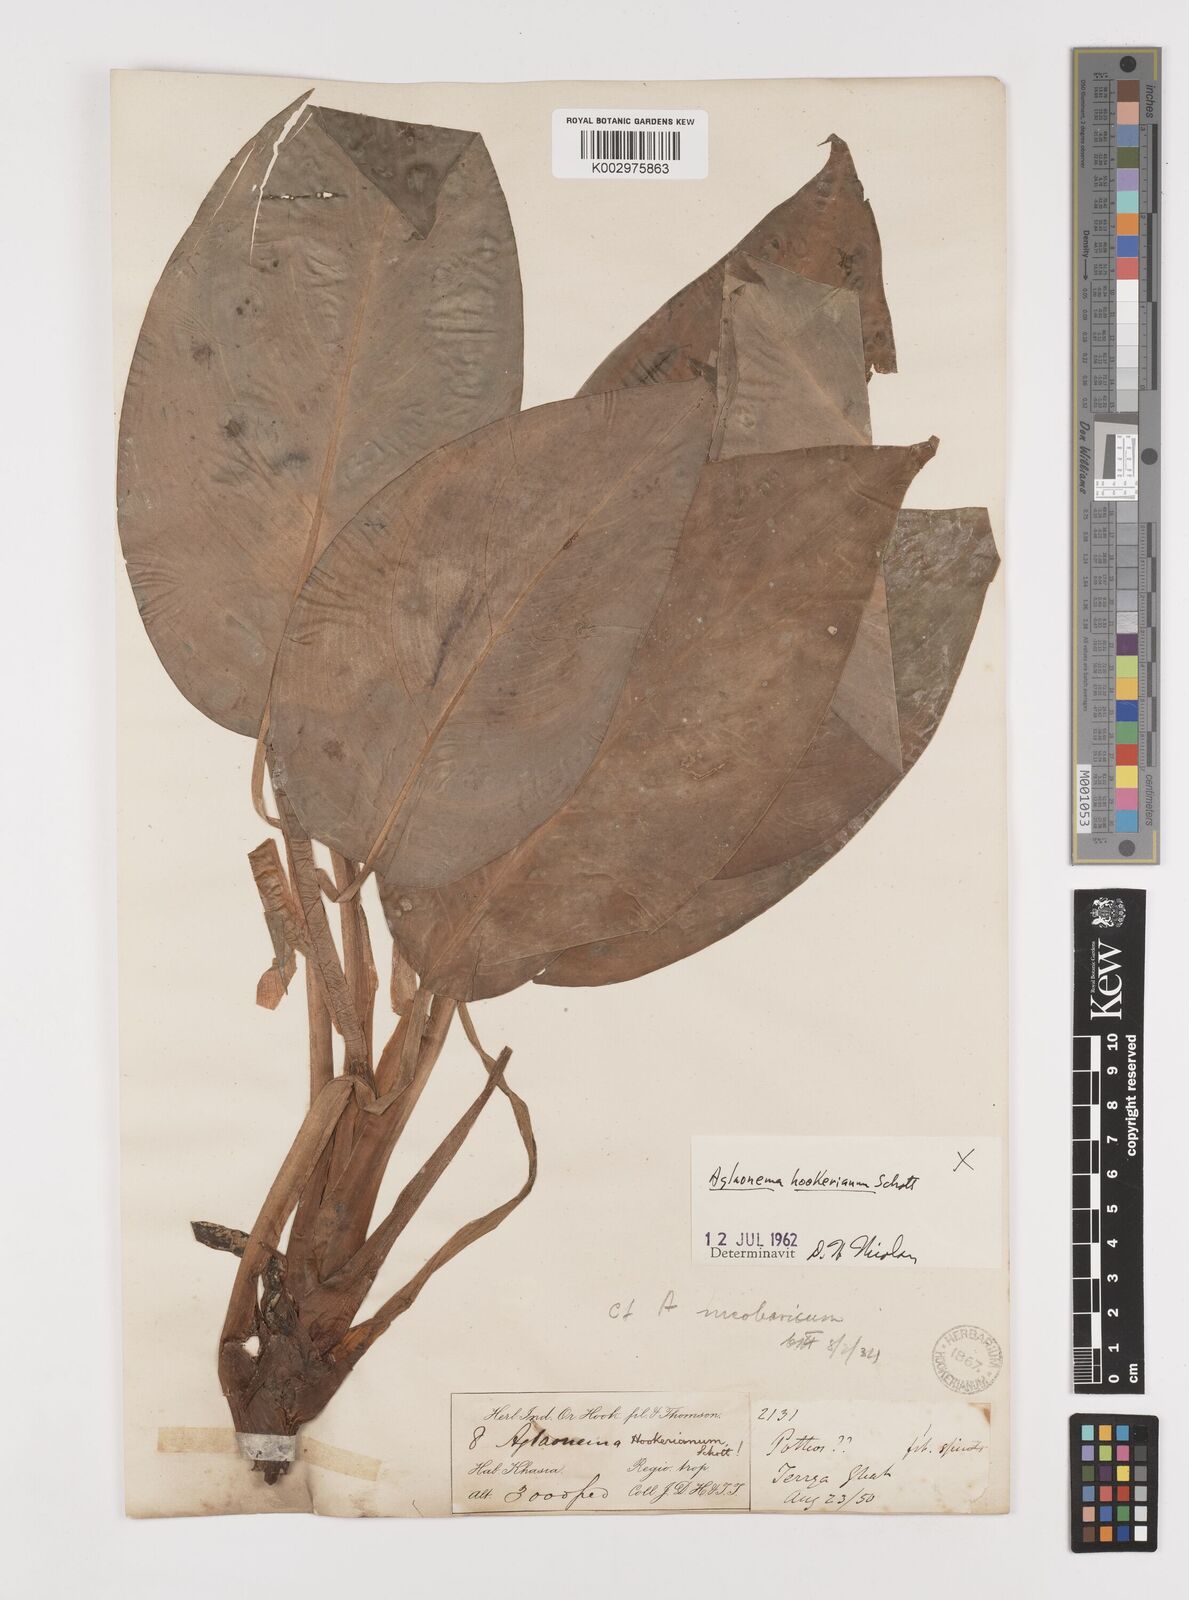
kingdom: Plantae
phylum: Tracheophyta
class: Liliopsida
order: Alismatales
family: Araceae
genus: Aglaonema
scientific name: Aglaonema hookerianum
